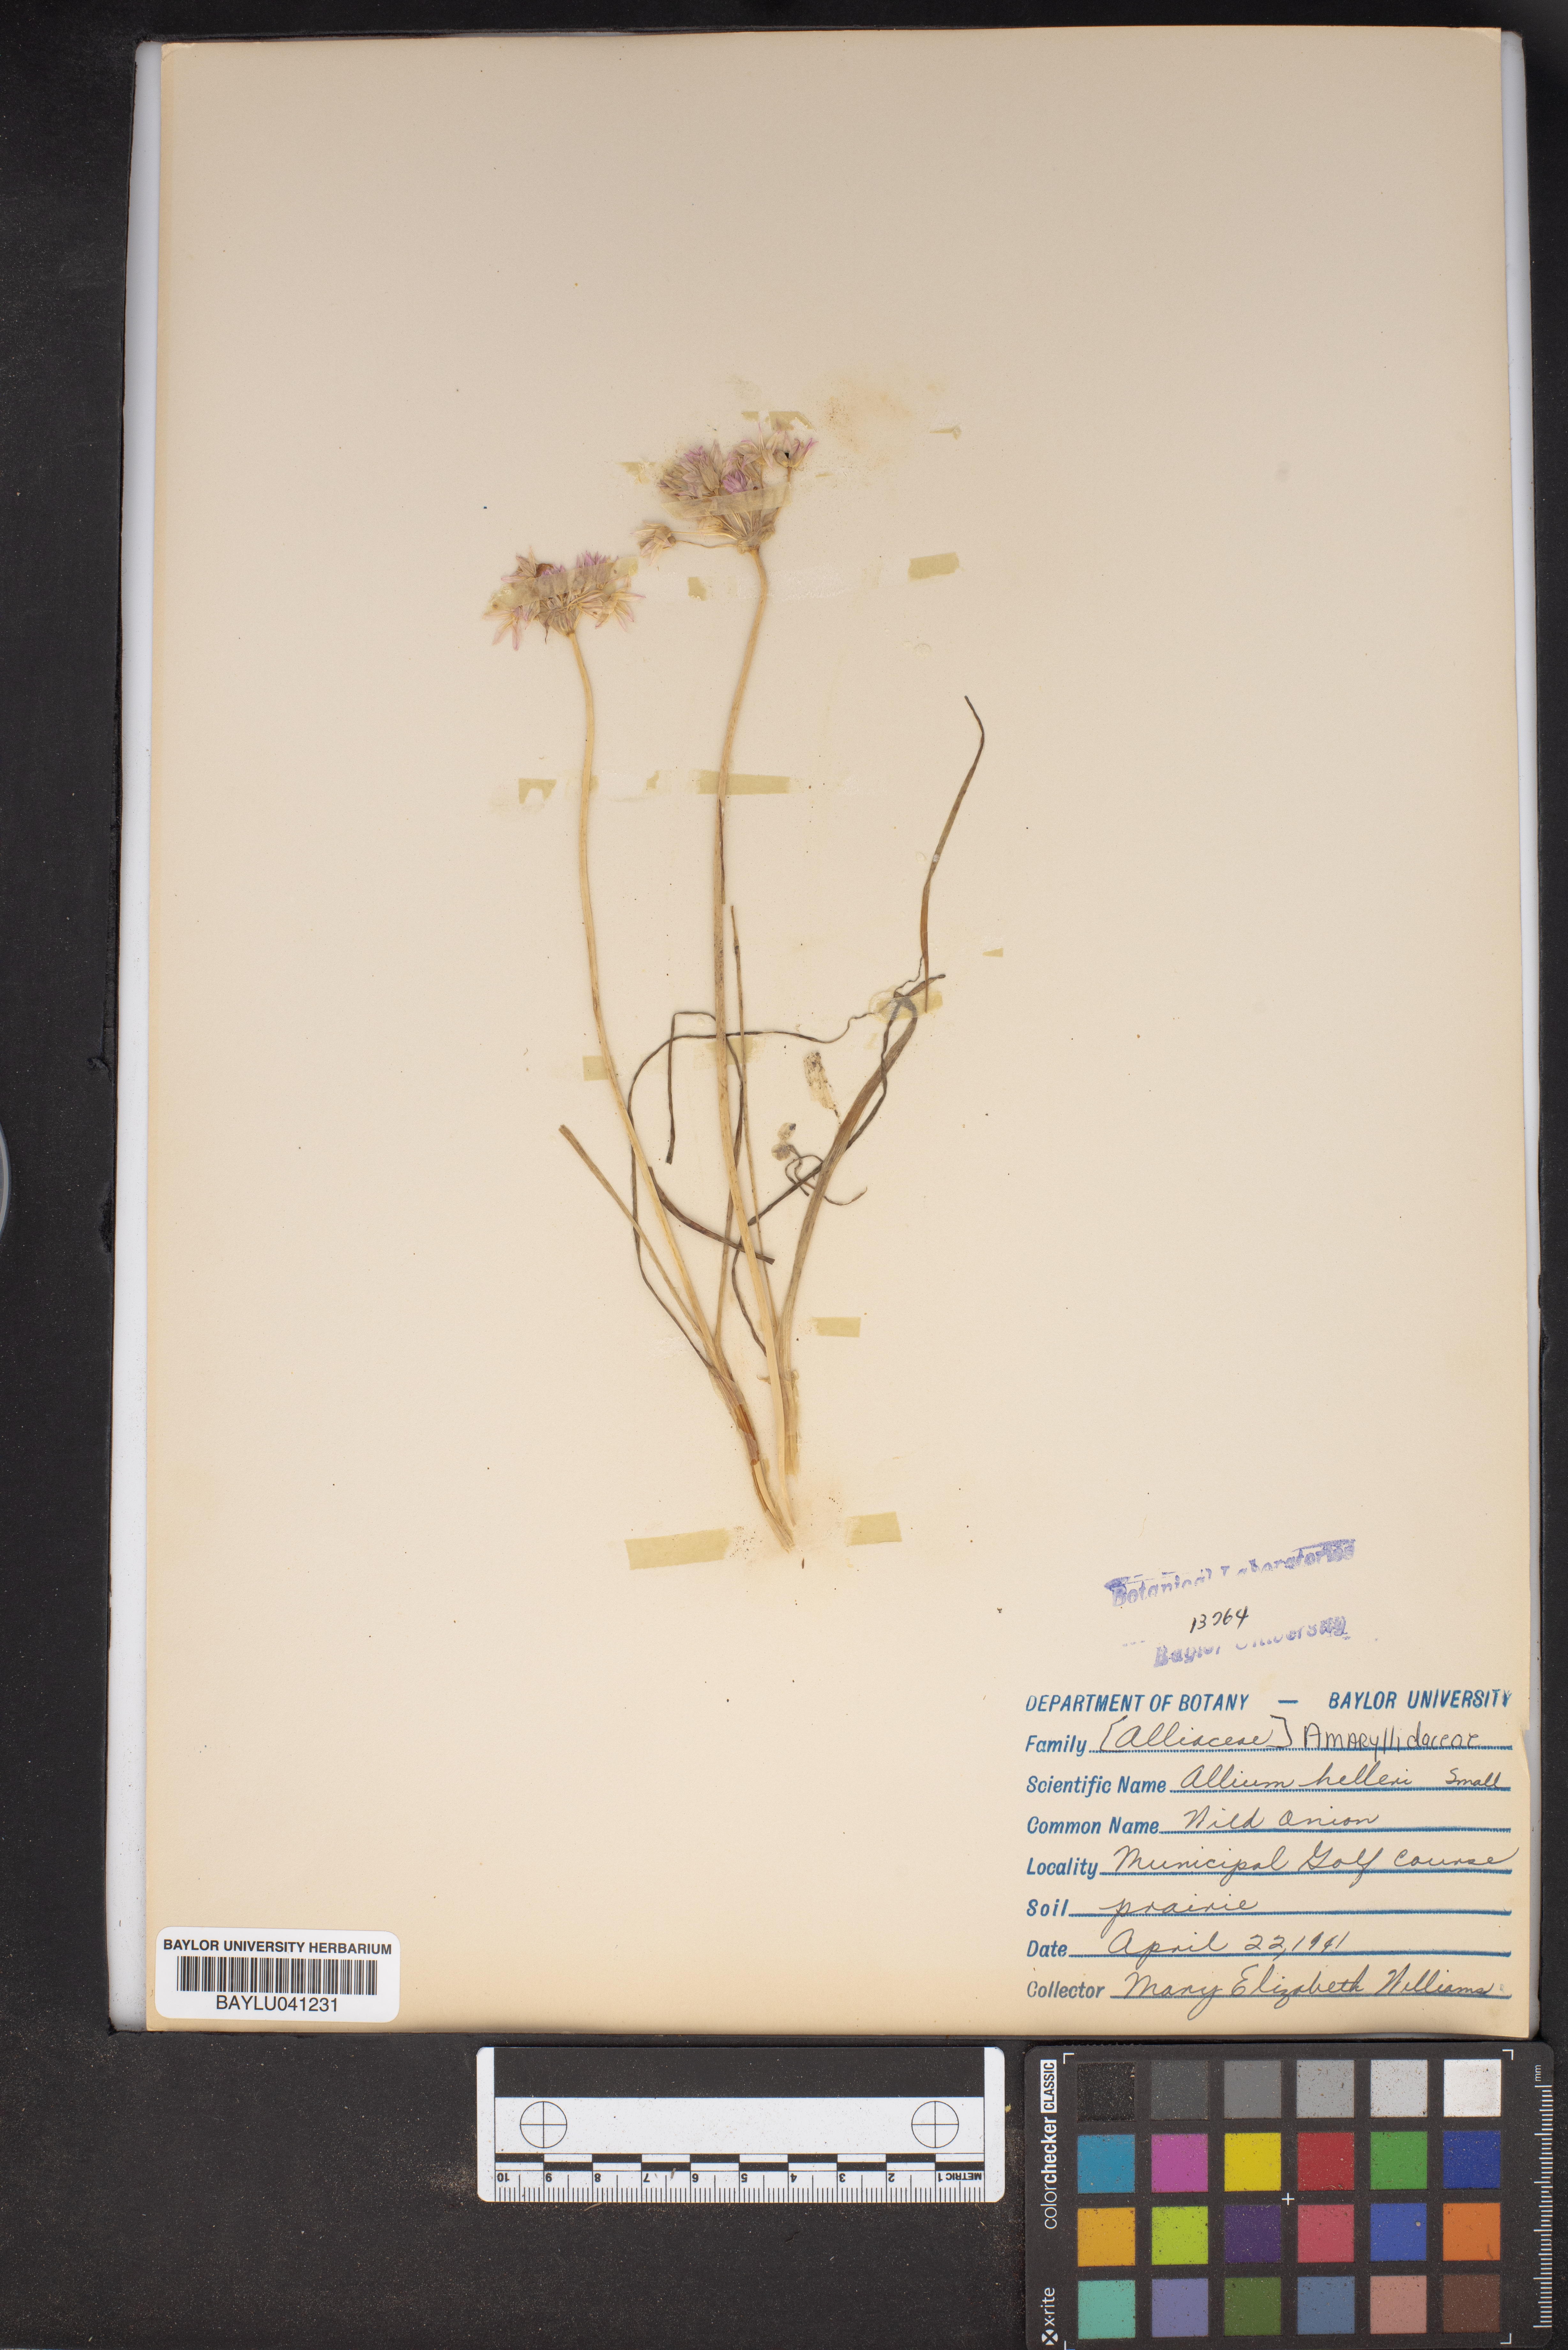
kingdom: Plantae
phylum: Tracheophyta
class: Liliopsida
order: Asparagales
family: Amaryllidaceae
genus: Allium
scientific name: Allium drummondii
